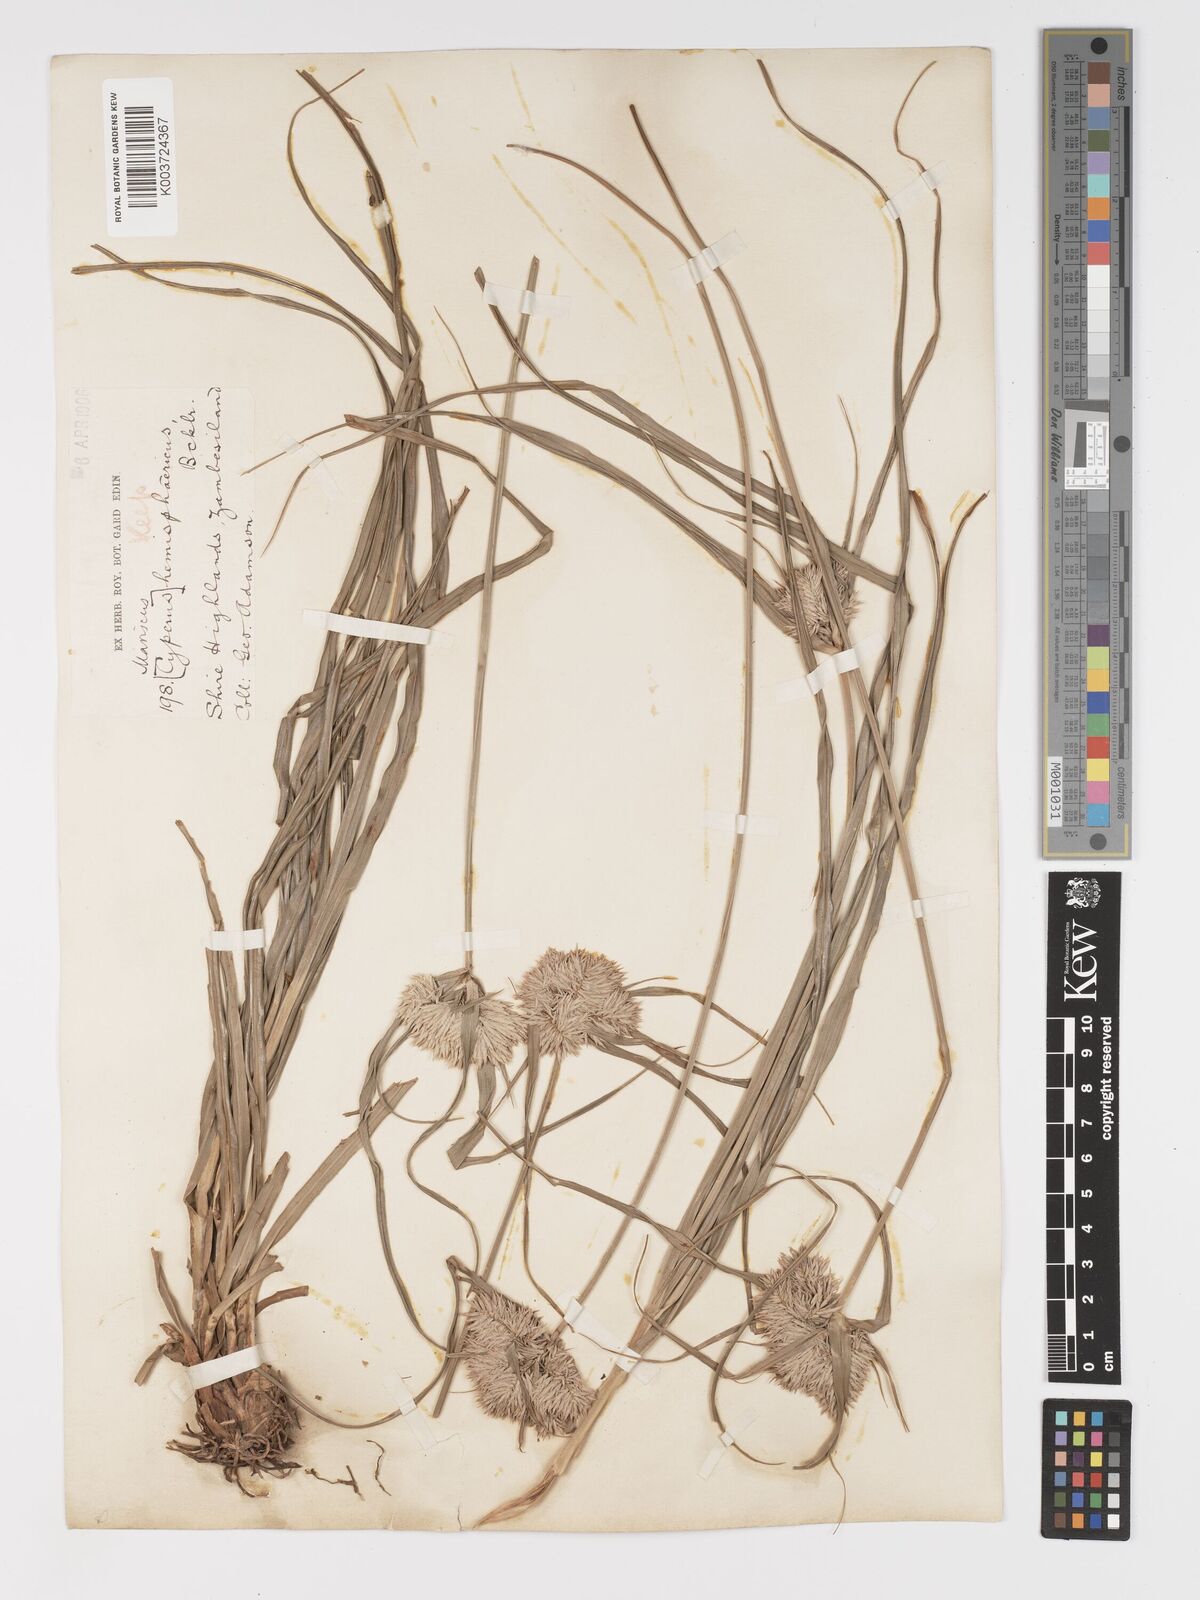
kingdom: Plantae
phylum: Tracheophyta
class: Liliopsida
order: Poales
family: Cyperaceae
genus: Cyperus
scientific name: Cyperus hemisphaericus
